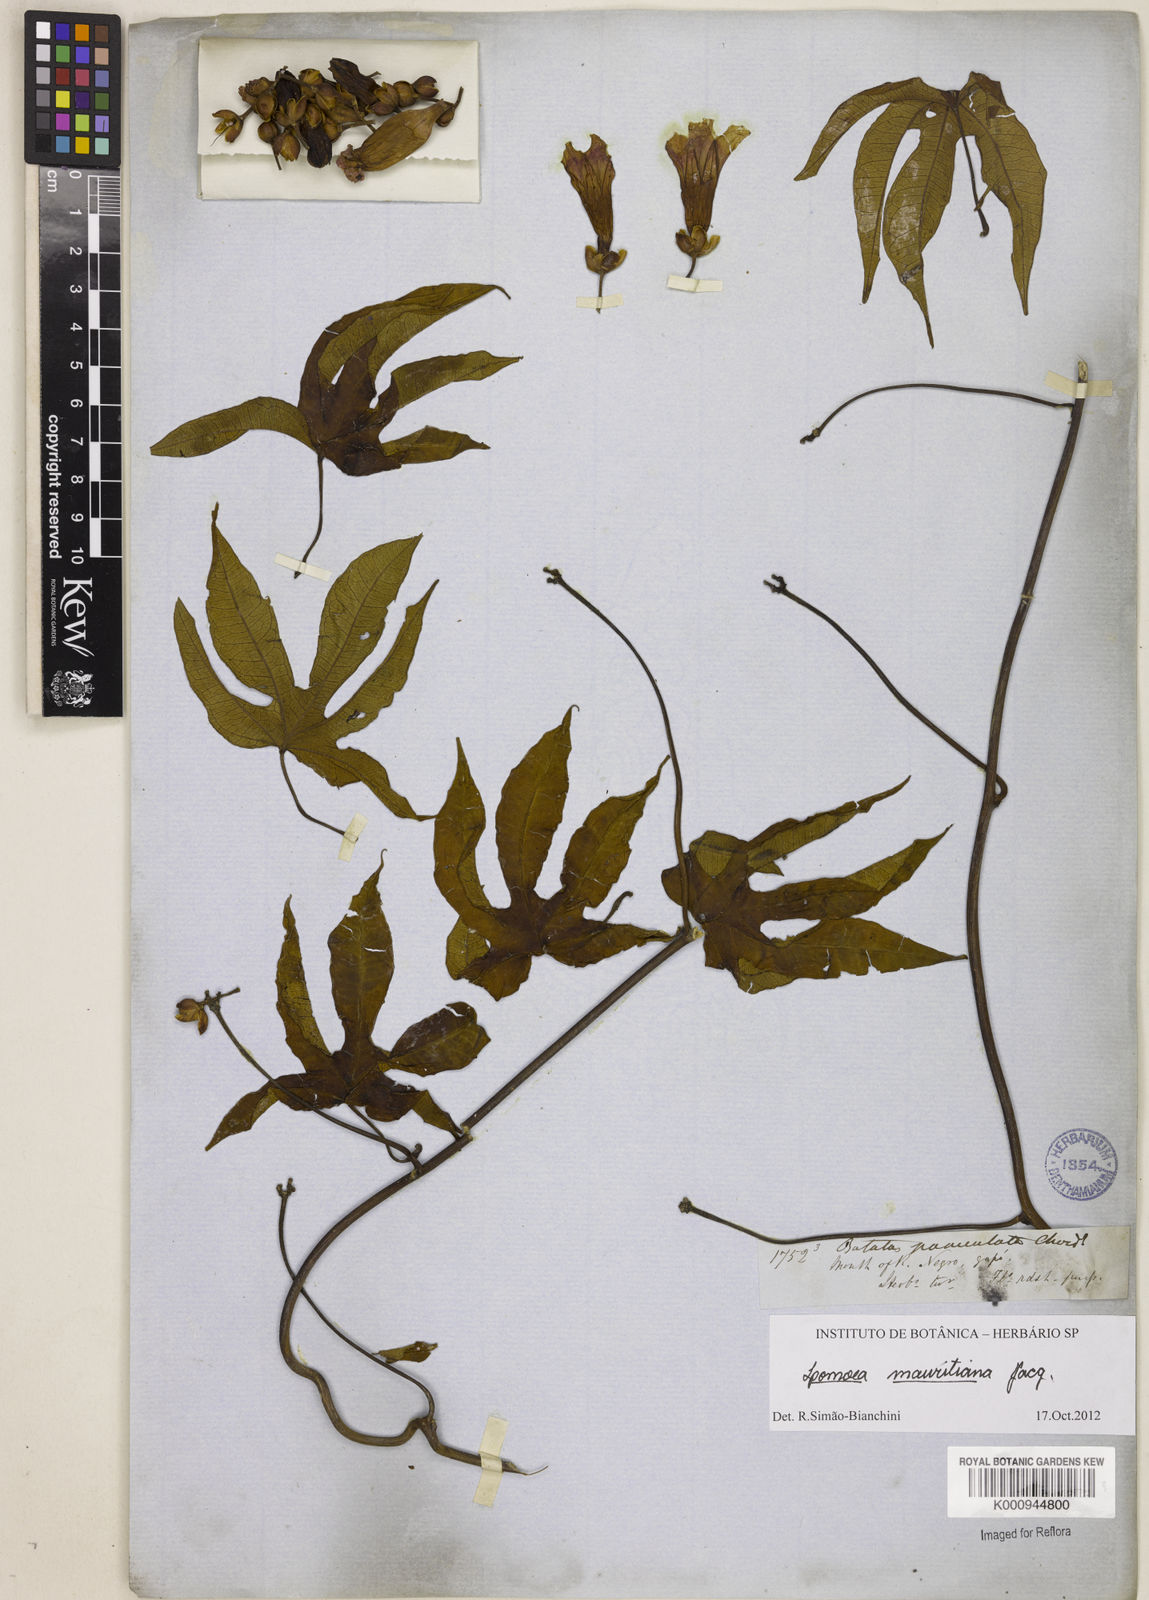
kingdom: Plantae
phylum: Tracheophyta
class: Magnoliopsida
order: Solanales
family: Convolvulaceae
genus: Ipomoea
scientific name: Ipomoea digitata
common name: Finger-leaf morning-glory
